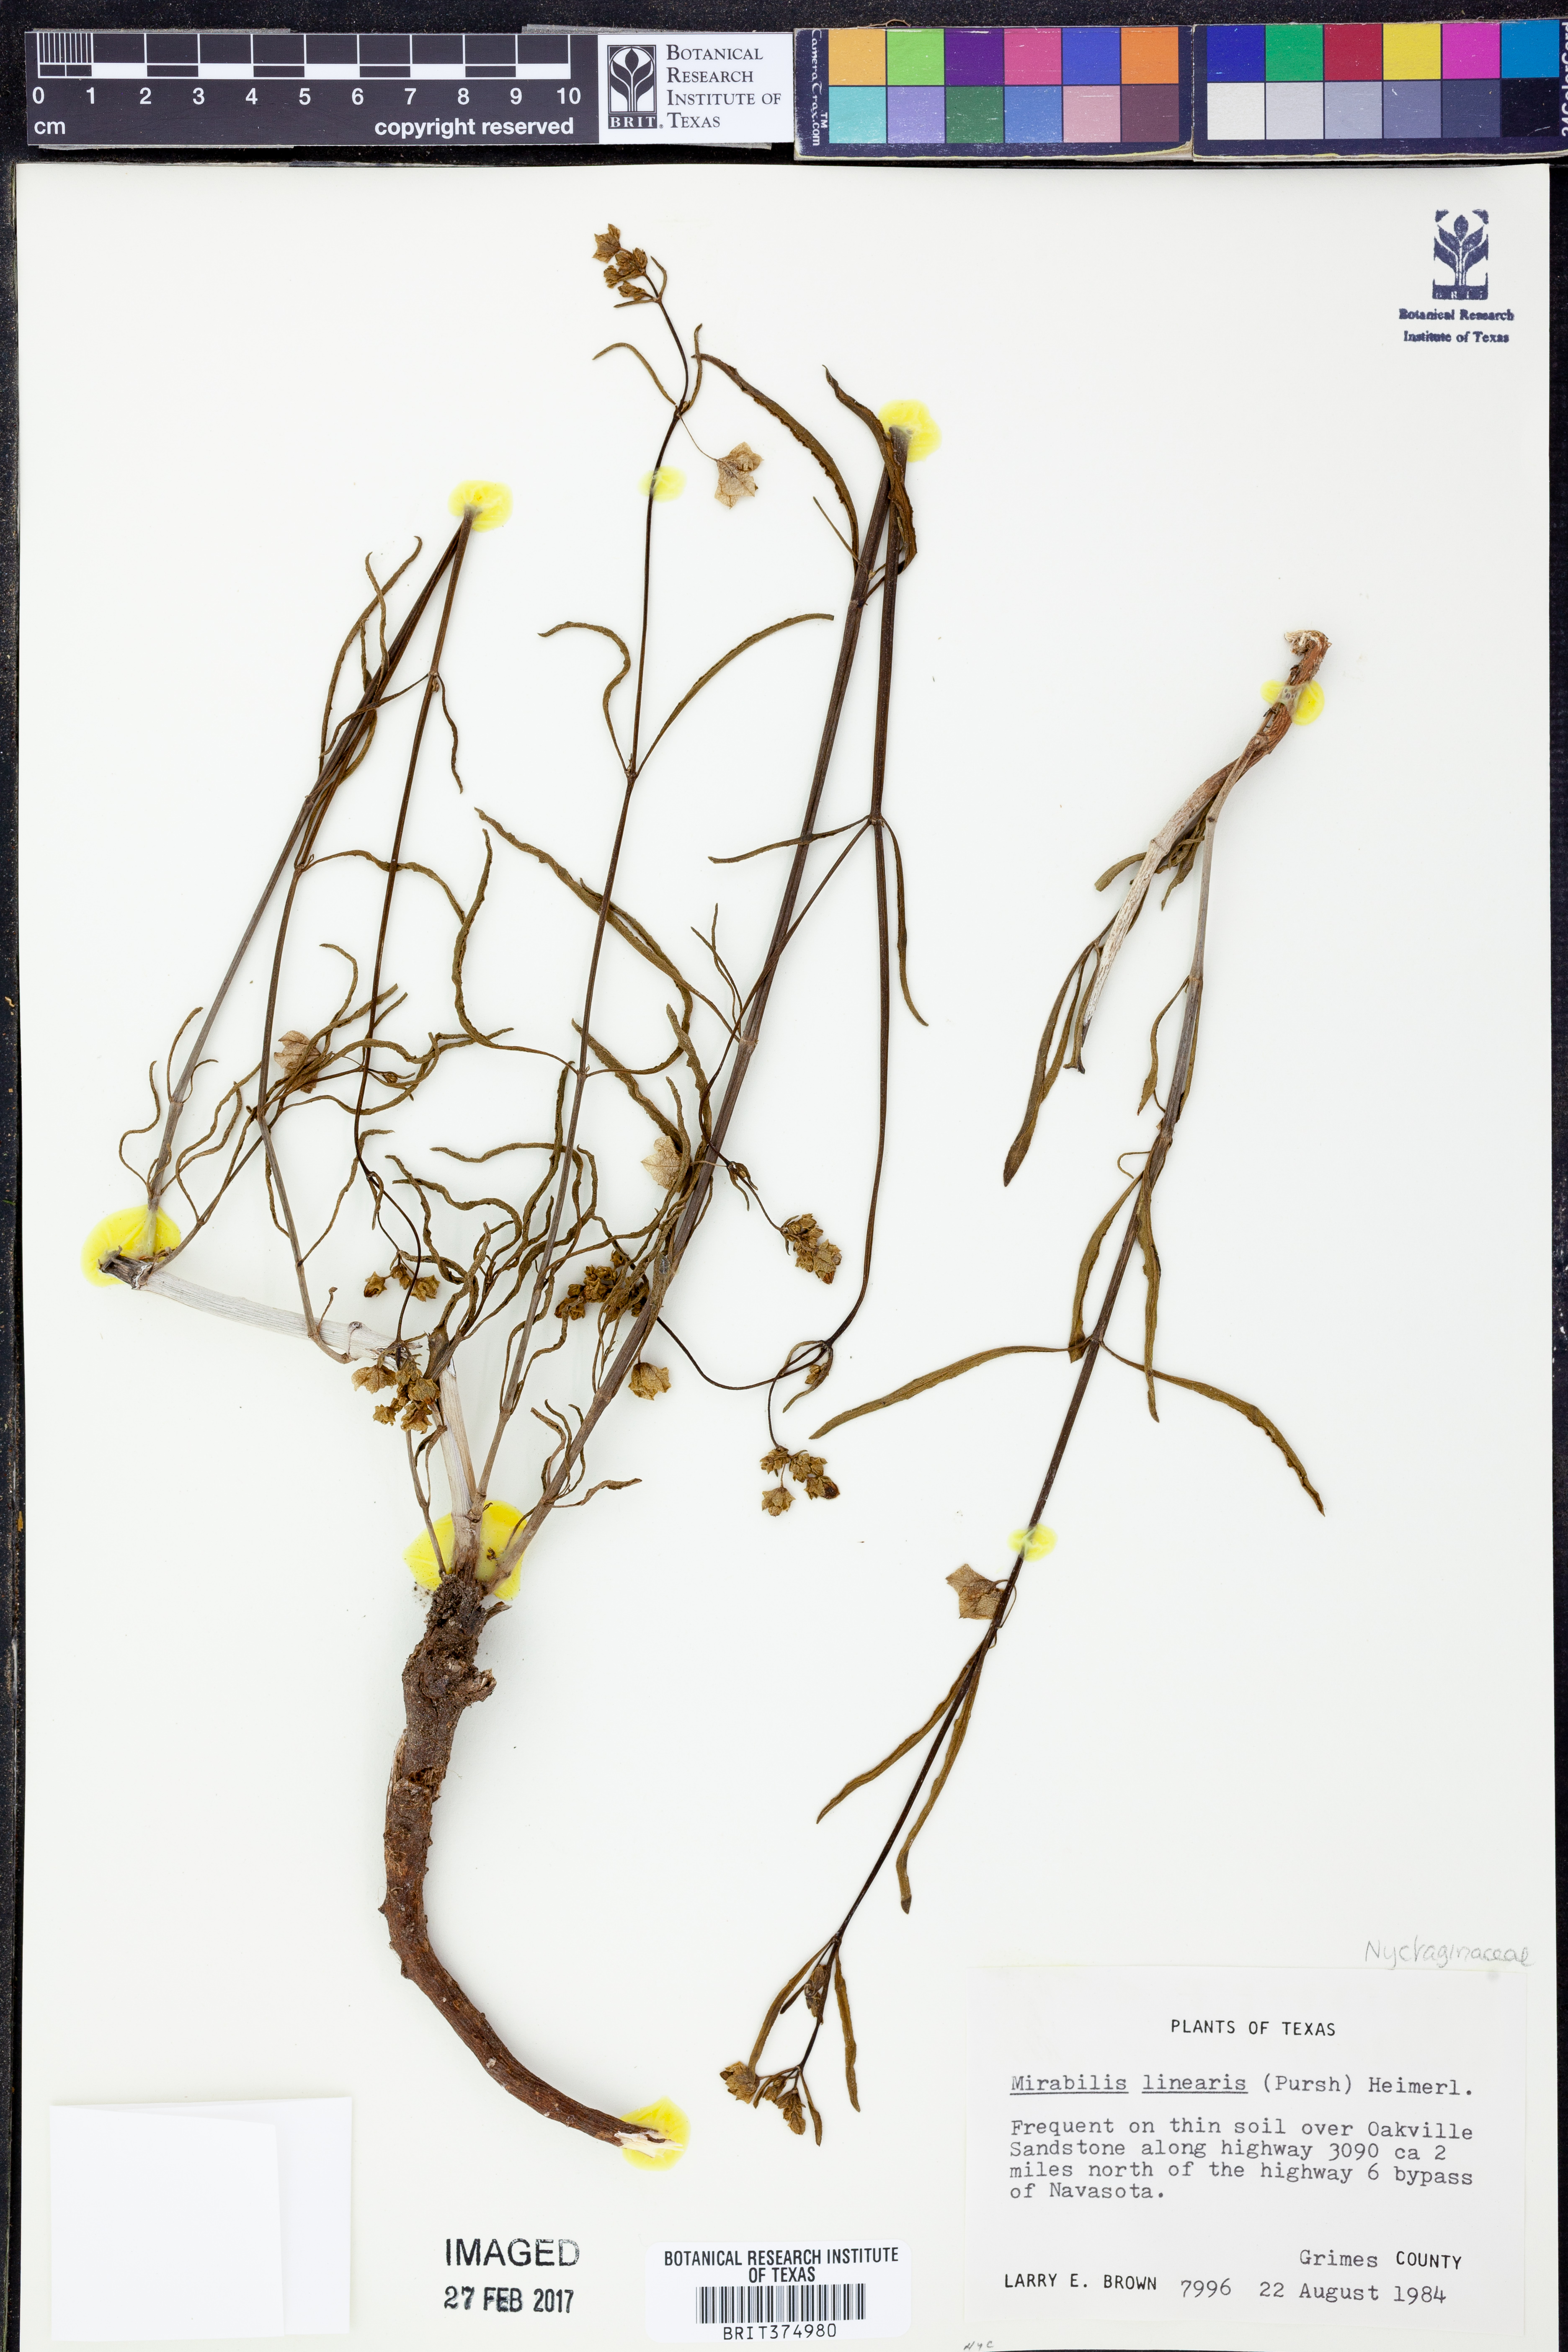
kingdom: Plantae
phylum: Tracheophyta
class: Magnoliopsida
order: Caryophyllales
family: Nyctaginaceae
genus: Mirabilis
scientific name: Mirabilis linearis
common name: Linear-leaved four-o'clock
